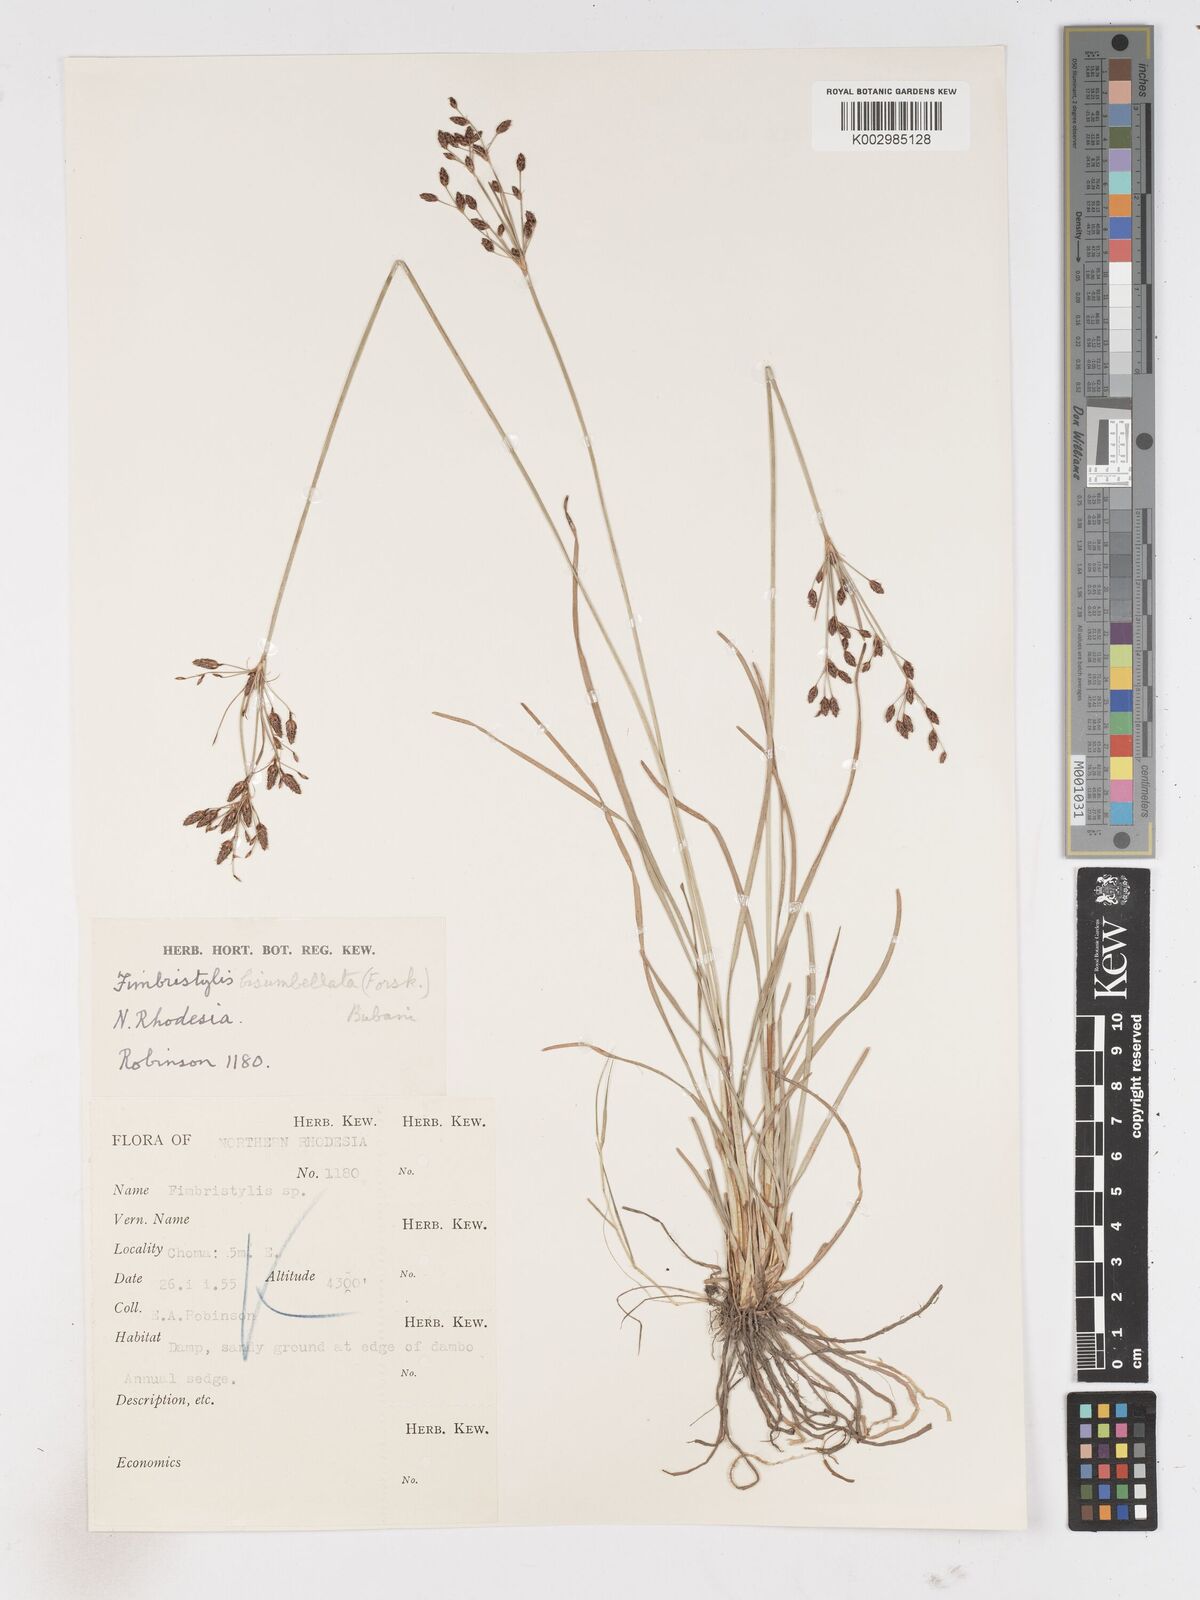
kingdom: Plantae
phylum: Tracheophyta
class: Liliopsida
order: Poales
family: Cyperaceae
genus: Fimbristylis
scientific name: Fimbristylis dichotoma
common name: Forked fimbry
